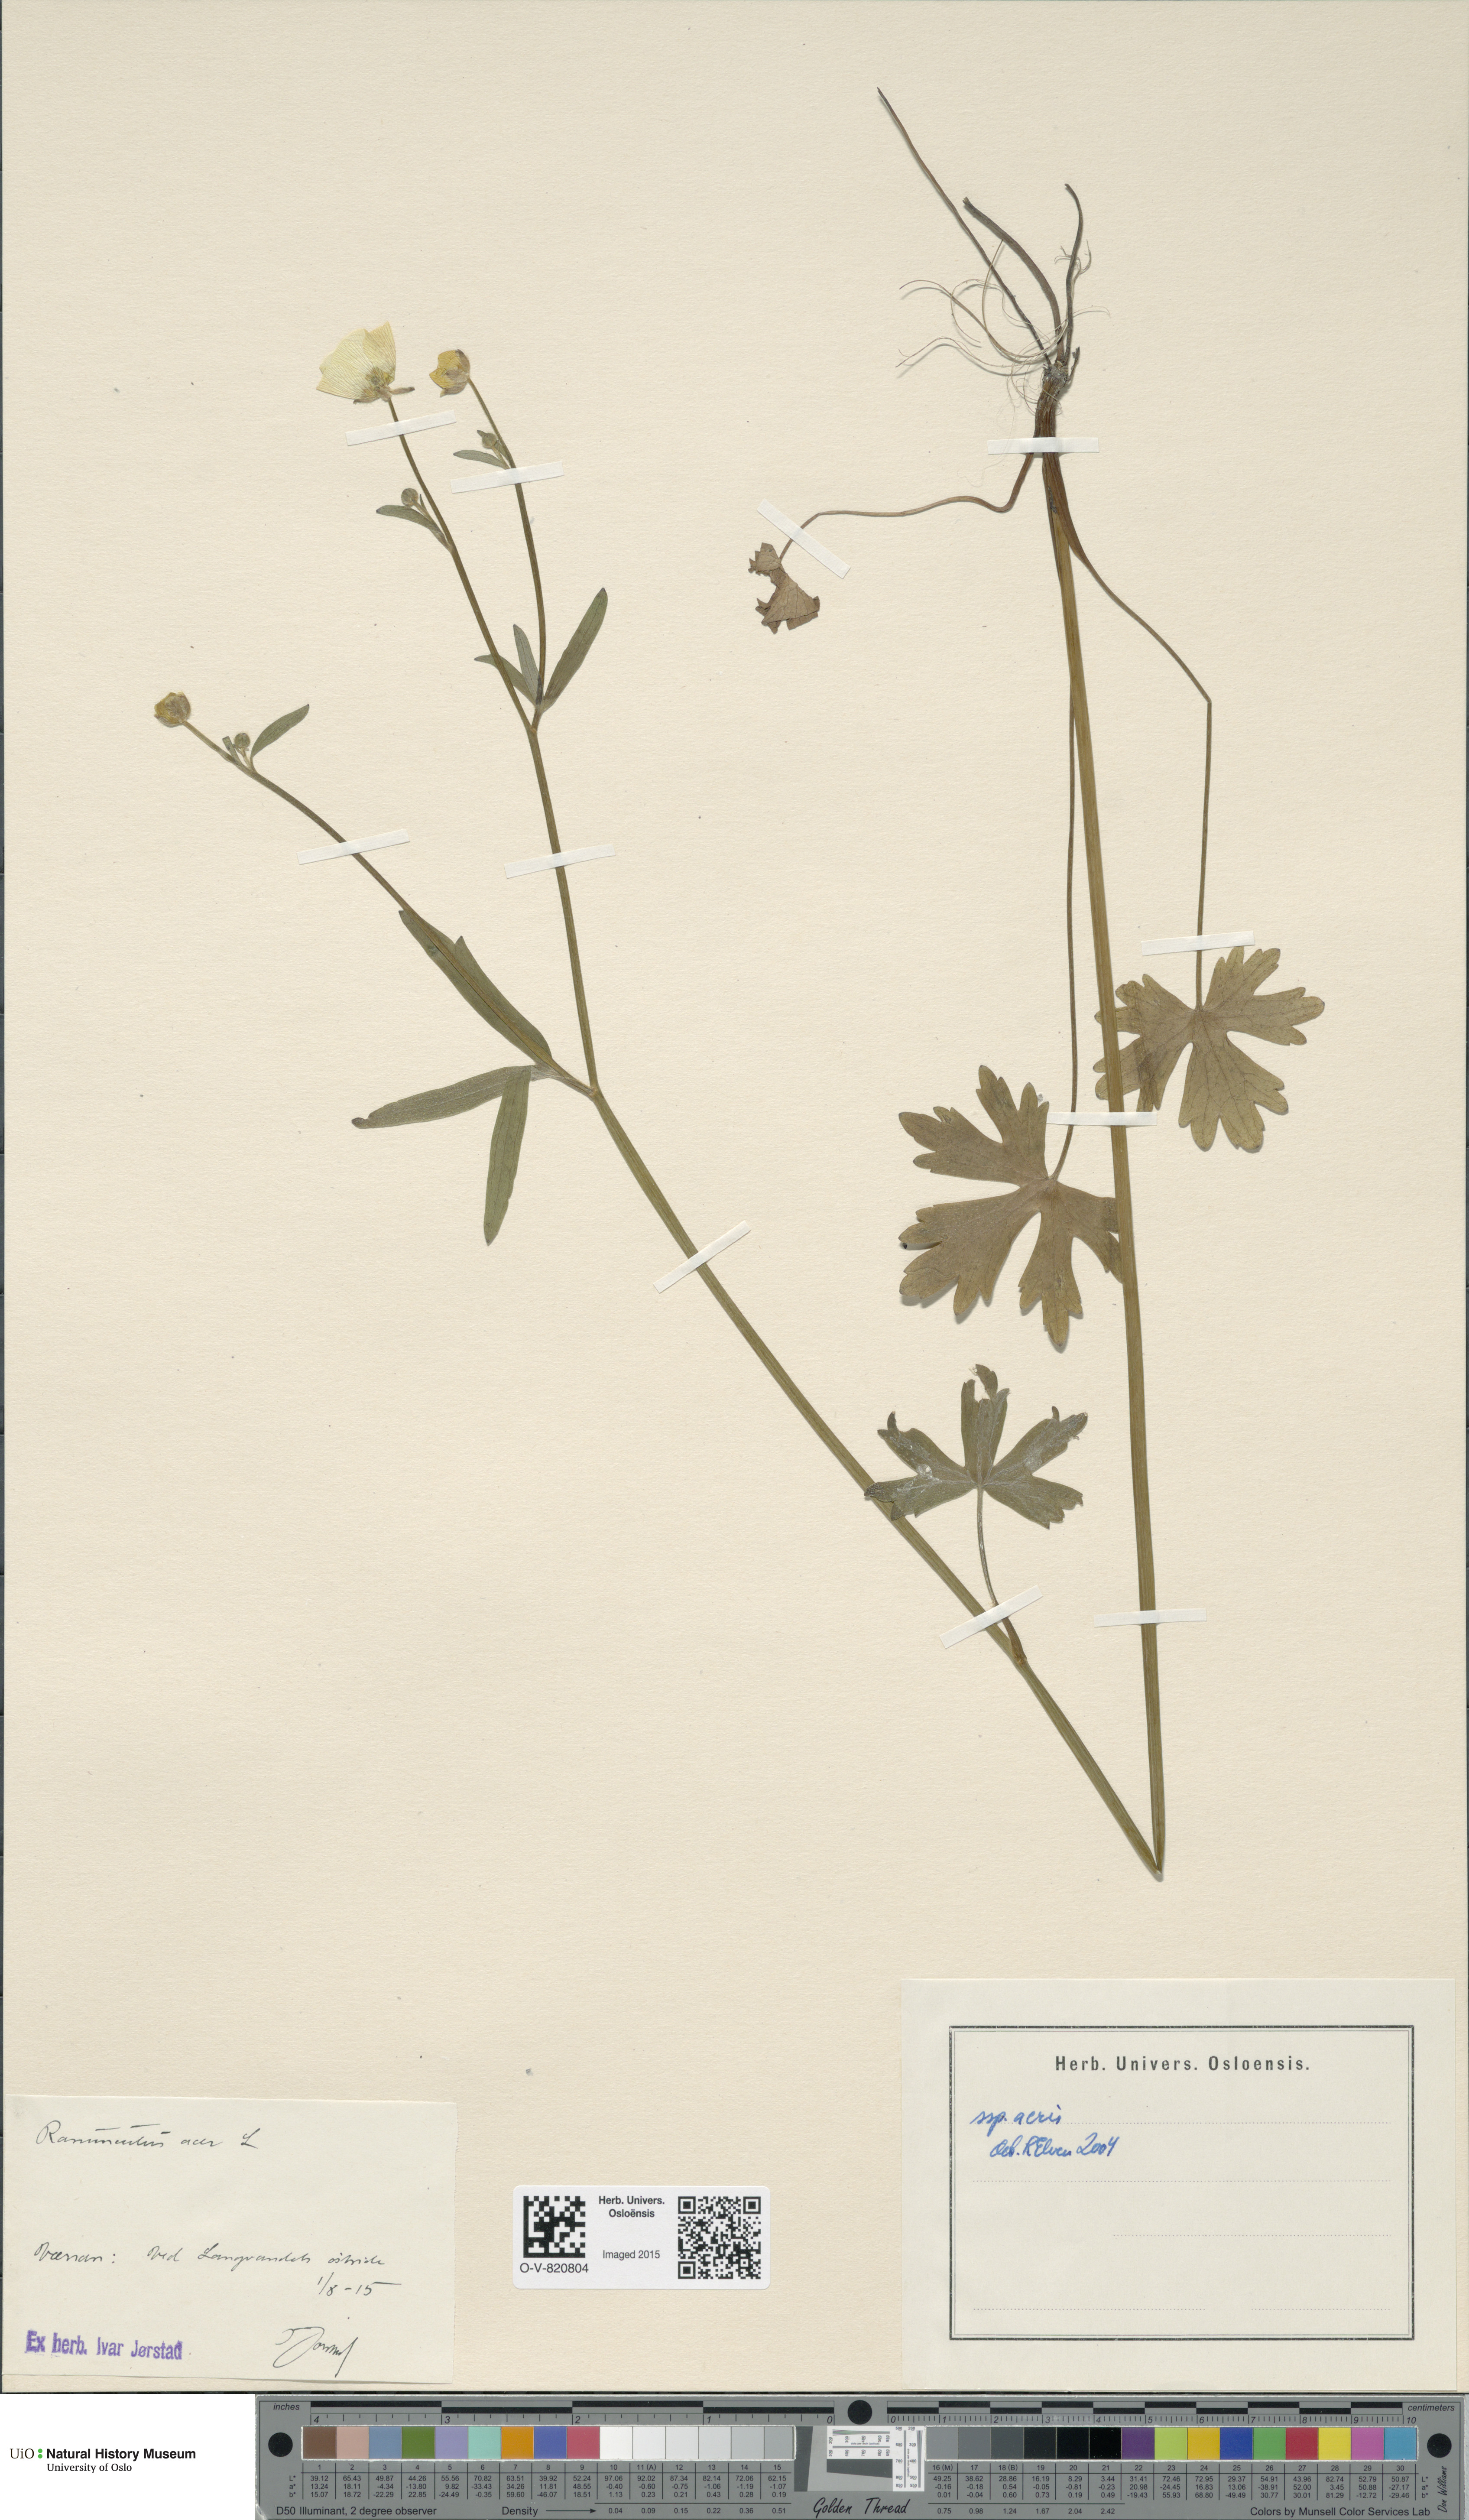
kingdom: Plantae
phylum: Tracheophyta
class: Magnoliopsida
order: Ranunculales
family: Ranunculaceae
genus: Ranunculus
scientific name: Ranunculus acris
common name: Meadow buttercup
